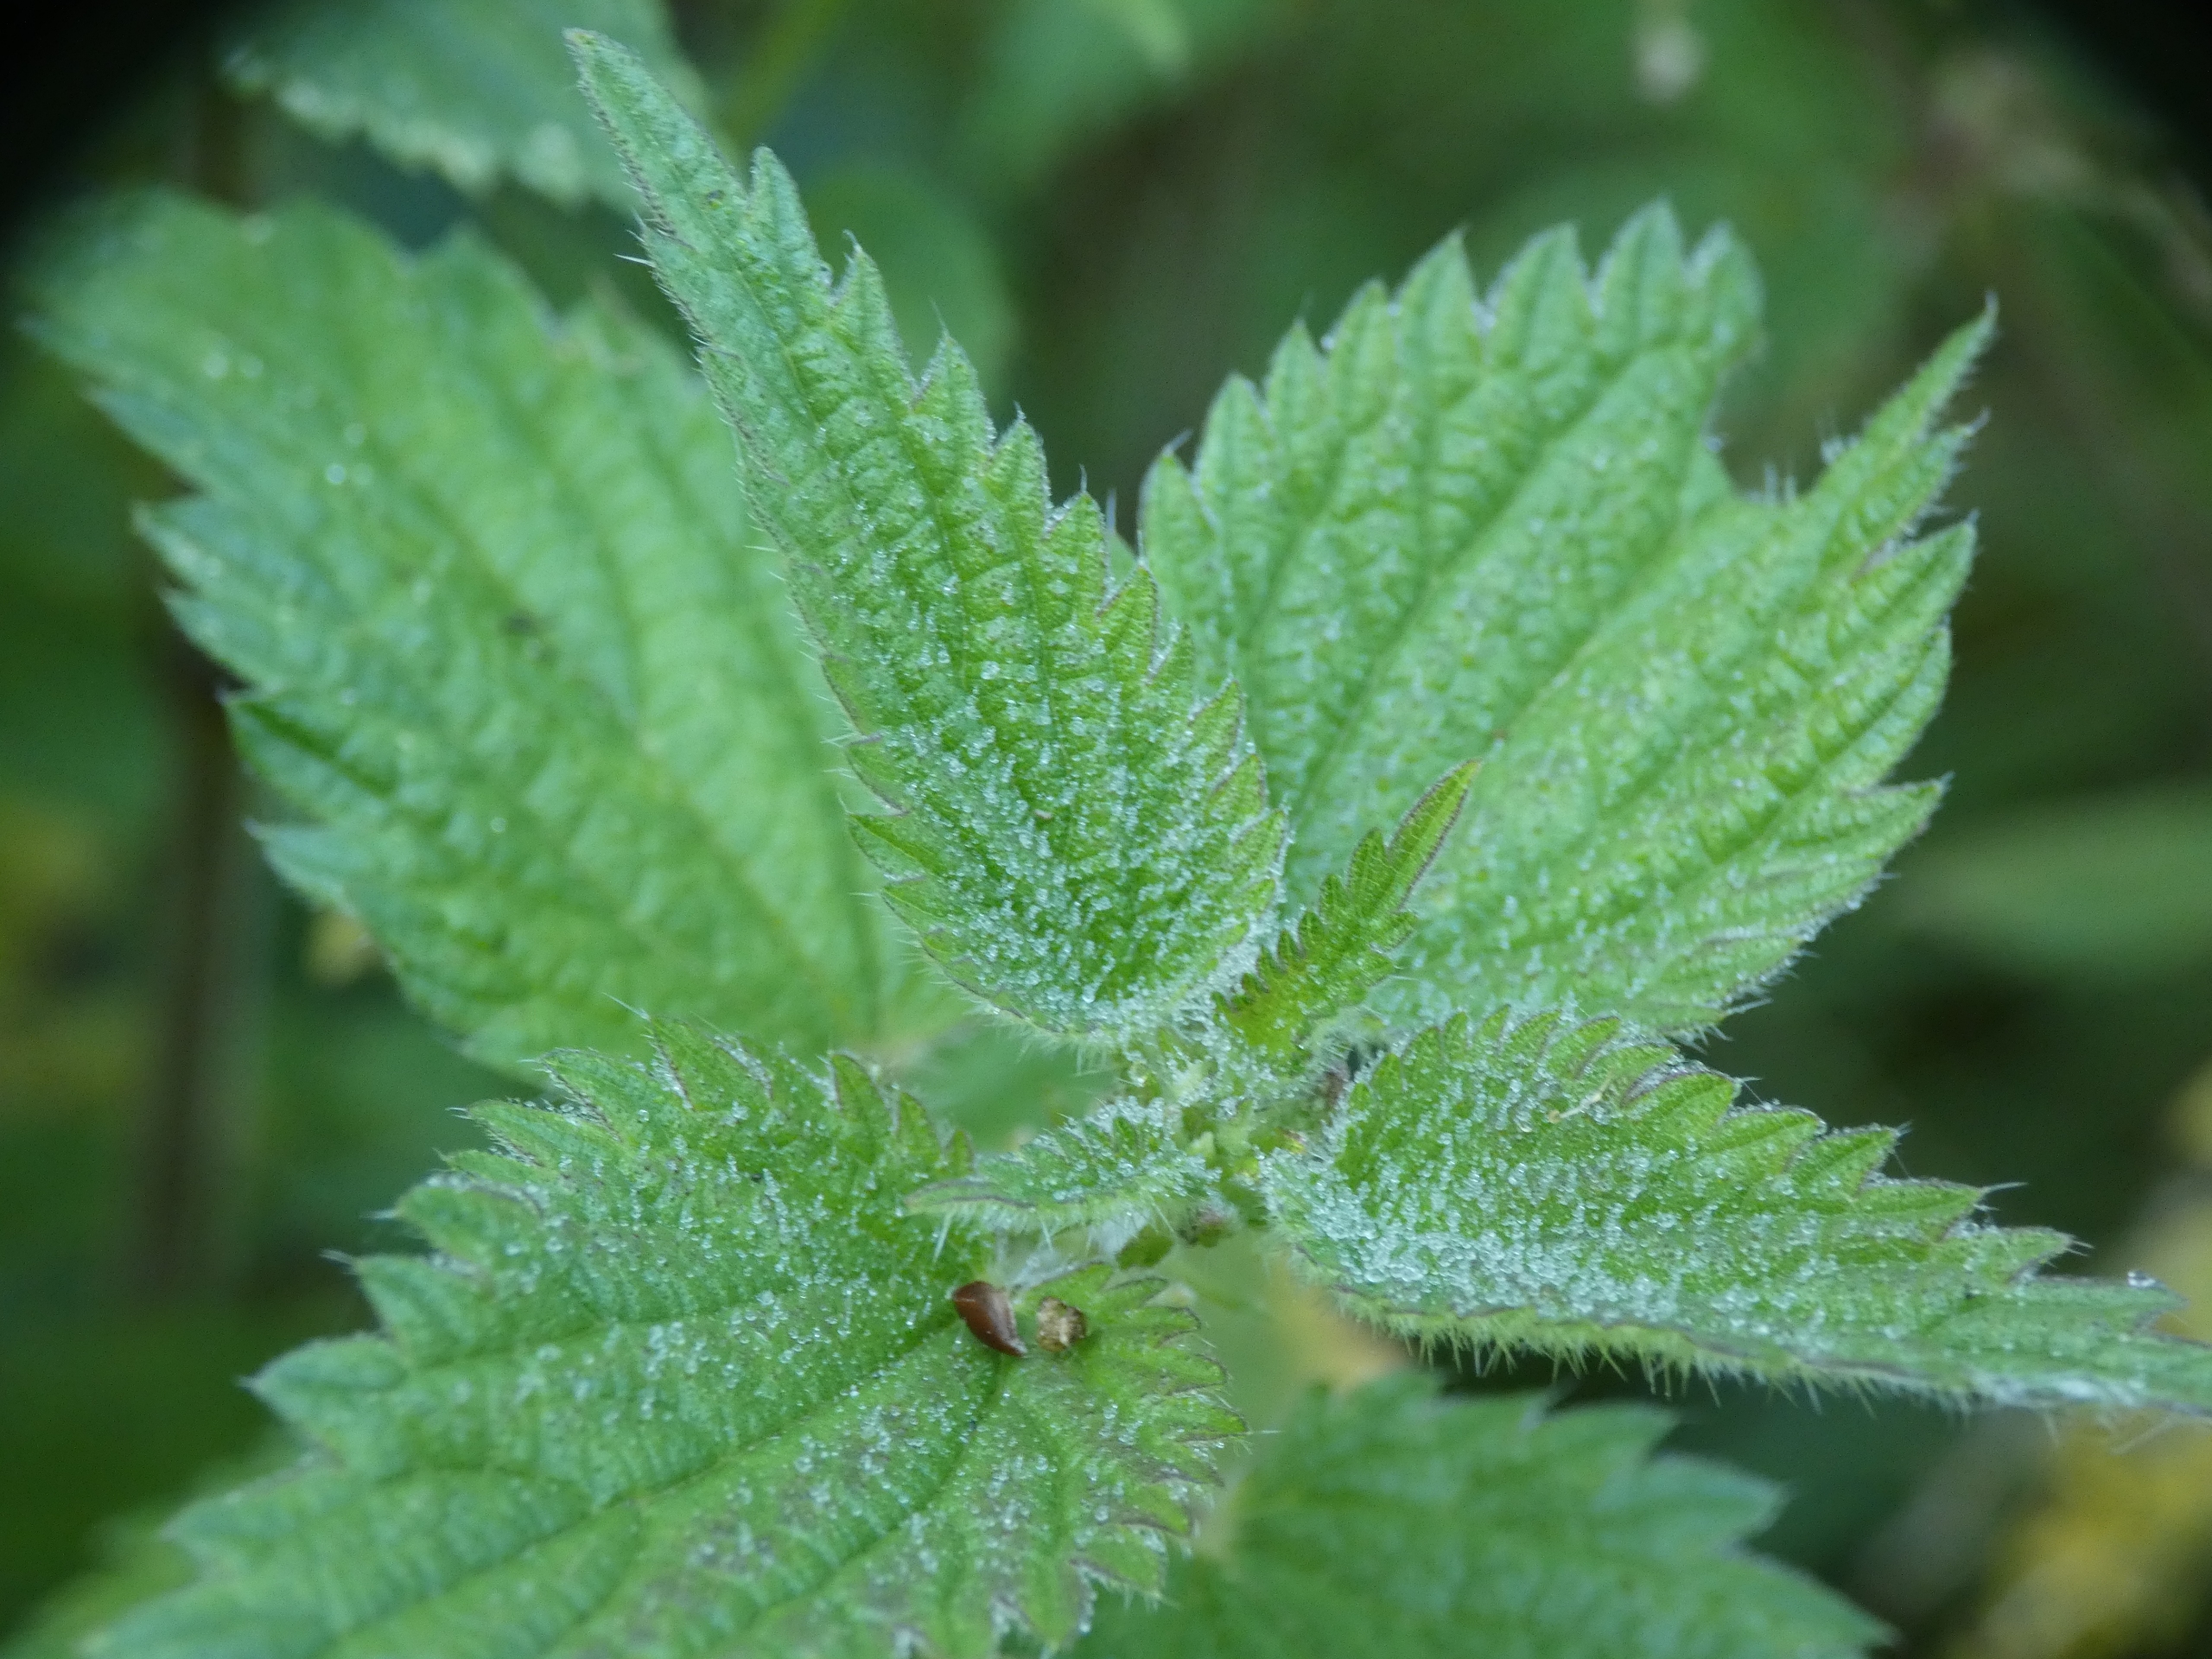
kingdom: Plantae
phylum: Tracheophyta
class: Magnoliopsida
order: Rosales
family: Urticaceae
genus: Urtica
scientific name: Urtica dioica
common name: Stor nælde
